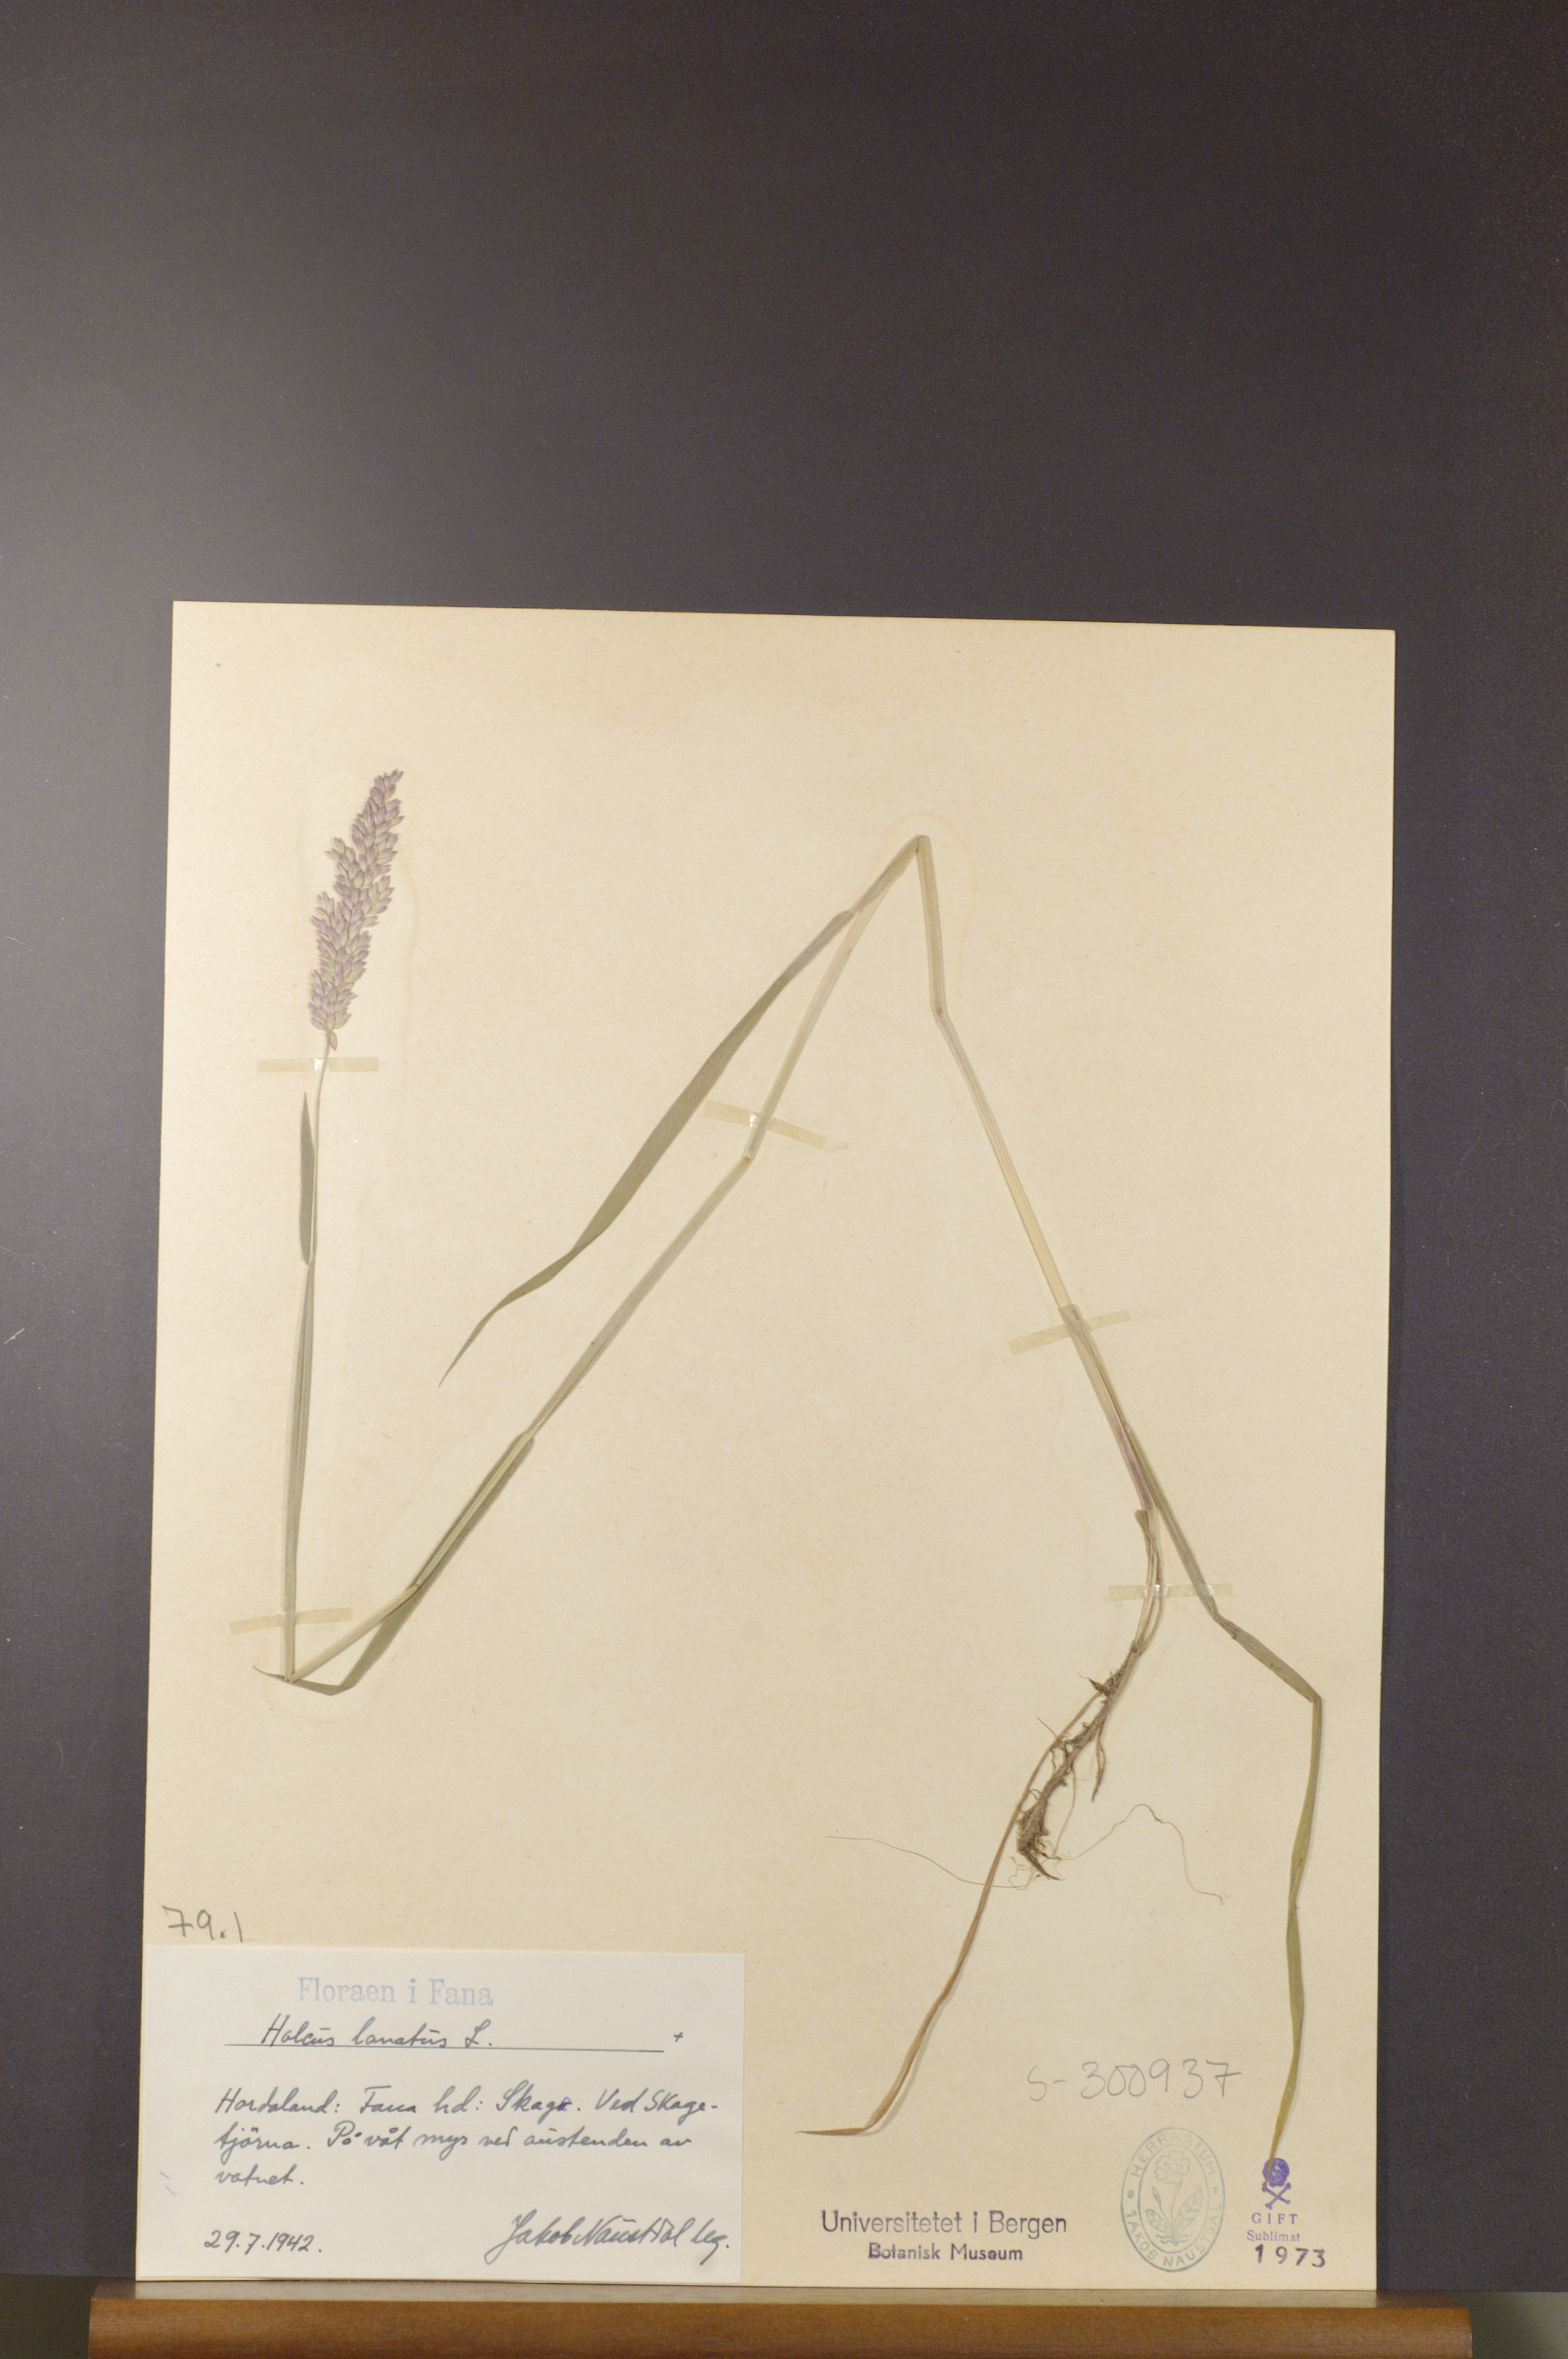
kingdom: Plantae
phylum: Tracheophyta
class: Liliopsida
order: Poales
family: Poaceae
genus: Holcus
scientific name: Holcus lanatus
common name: Yorkshire-fog
